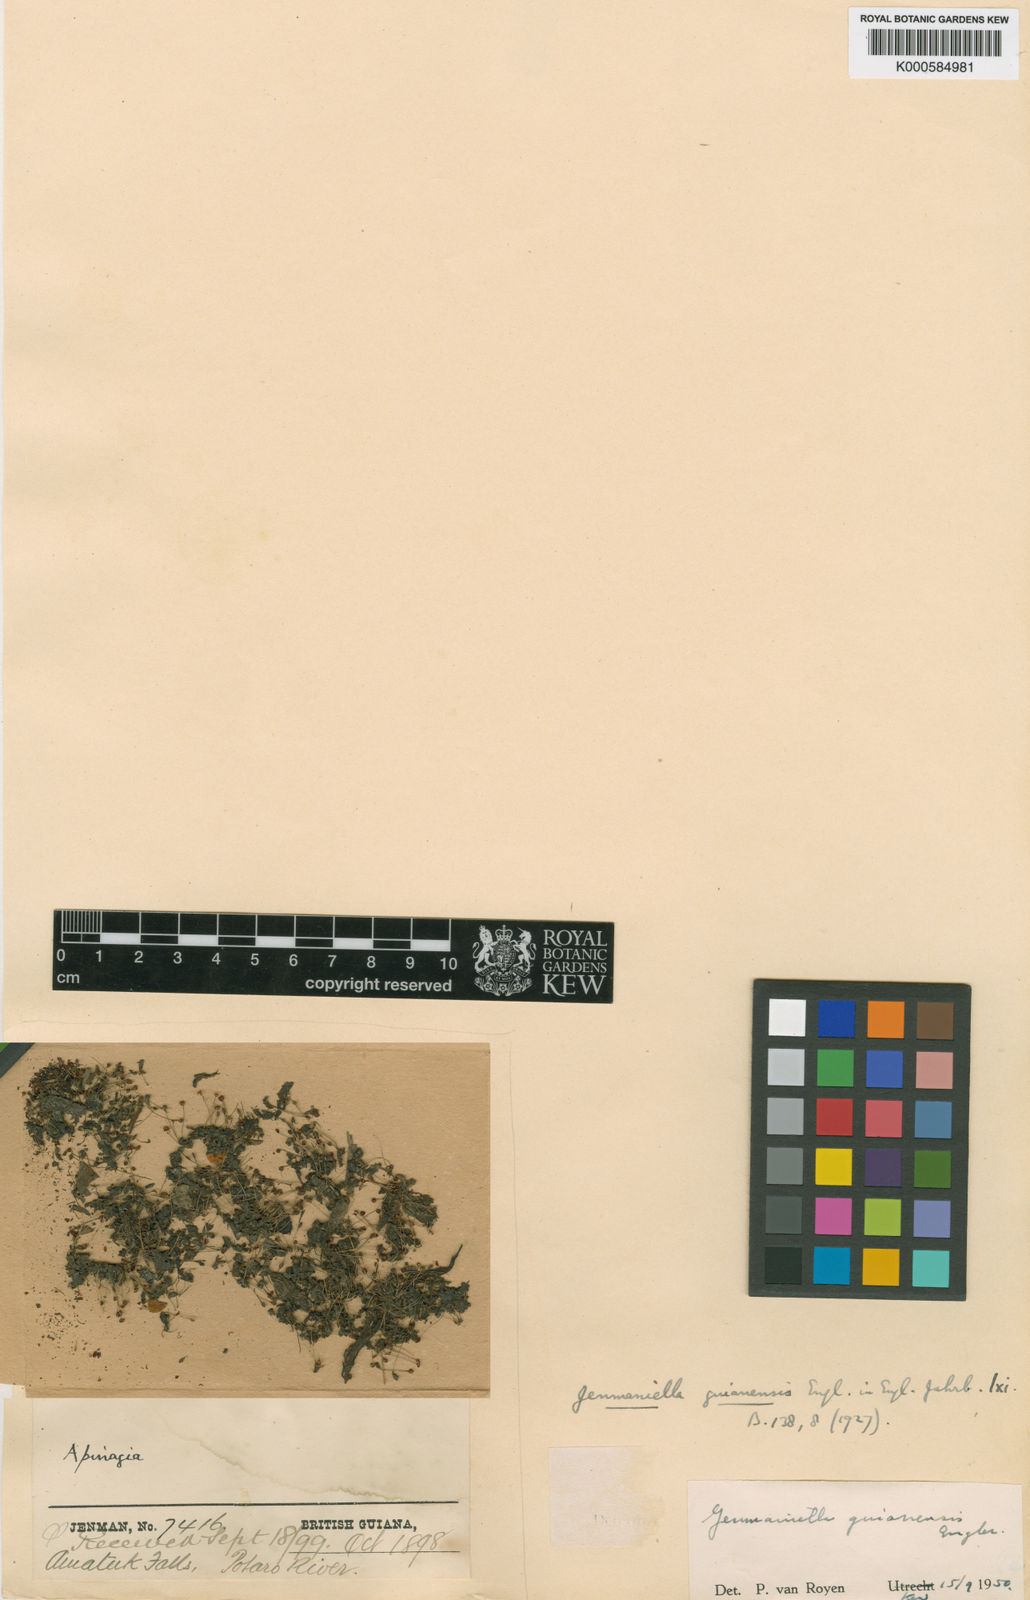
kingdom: Plantae
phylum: Tracheophyta
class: Magnoliopsida
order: Malpighiales
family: Podostemaceae
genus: Lophogyne
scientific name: Lophogyne varians
